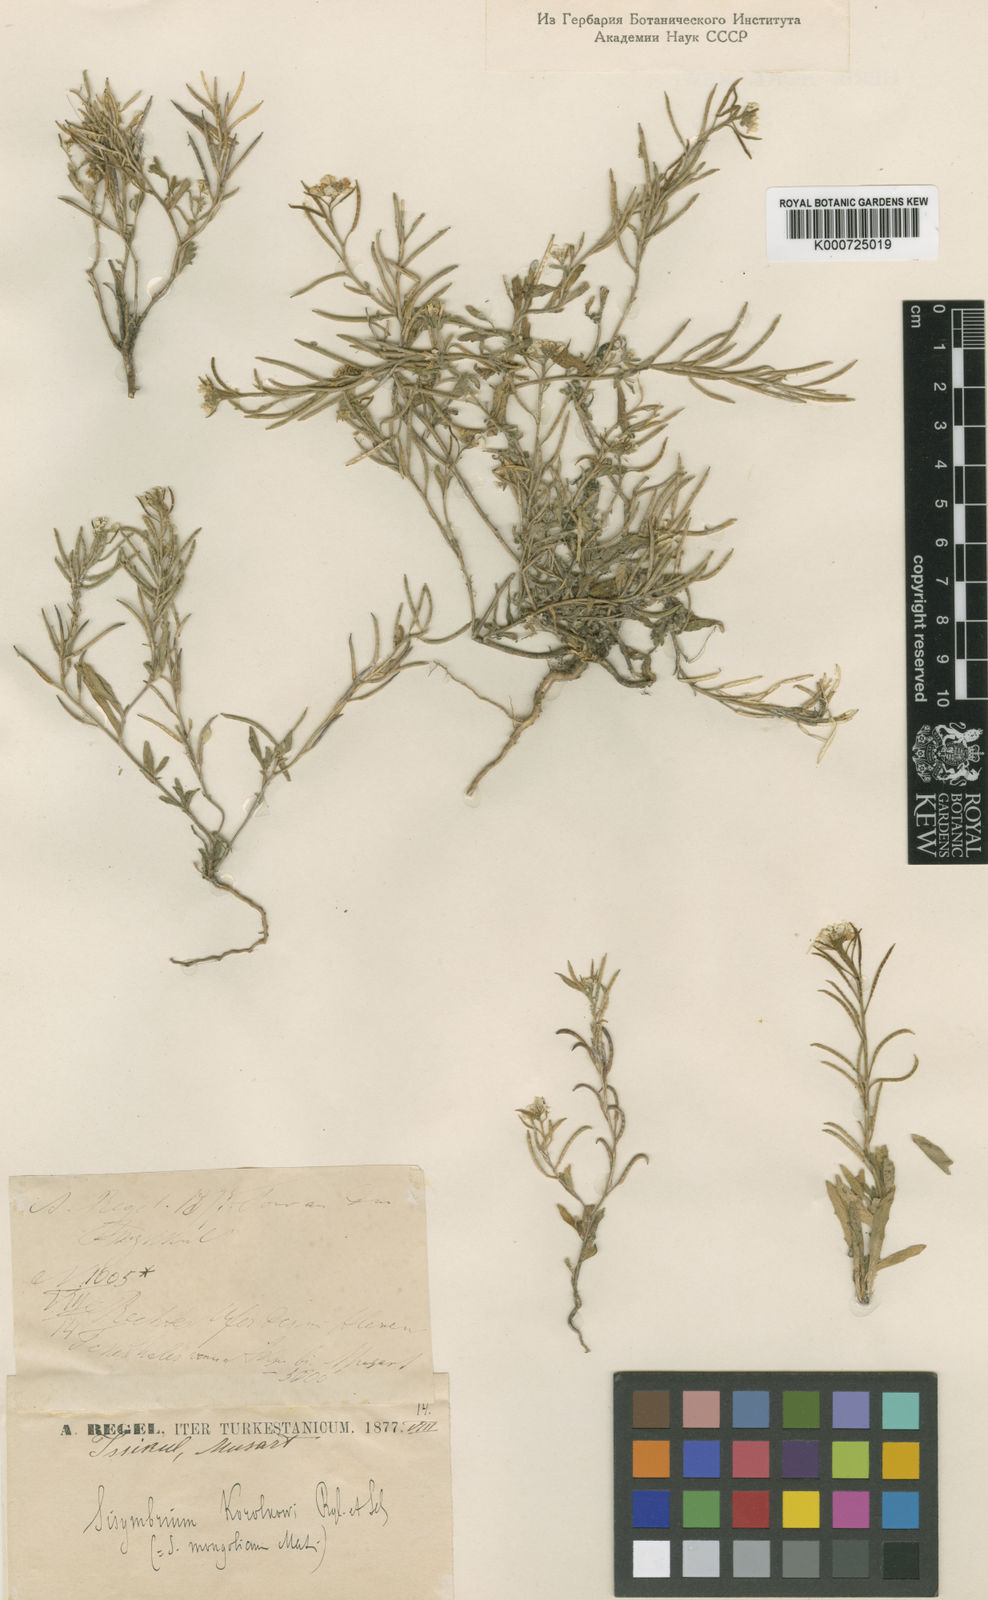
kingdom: Plantae
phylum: Tracheophyta
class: Magnoliopsida
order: Brassicales
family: Brassicaceae
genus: Neotorularia
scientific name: Neotorularia
